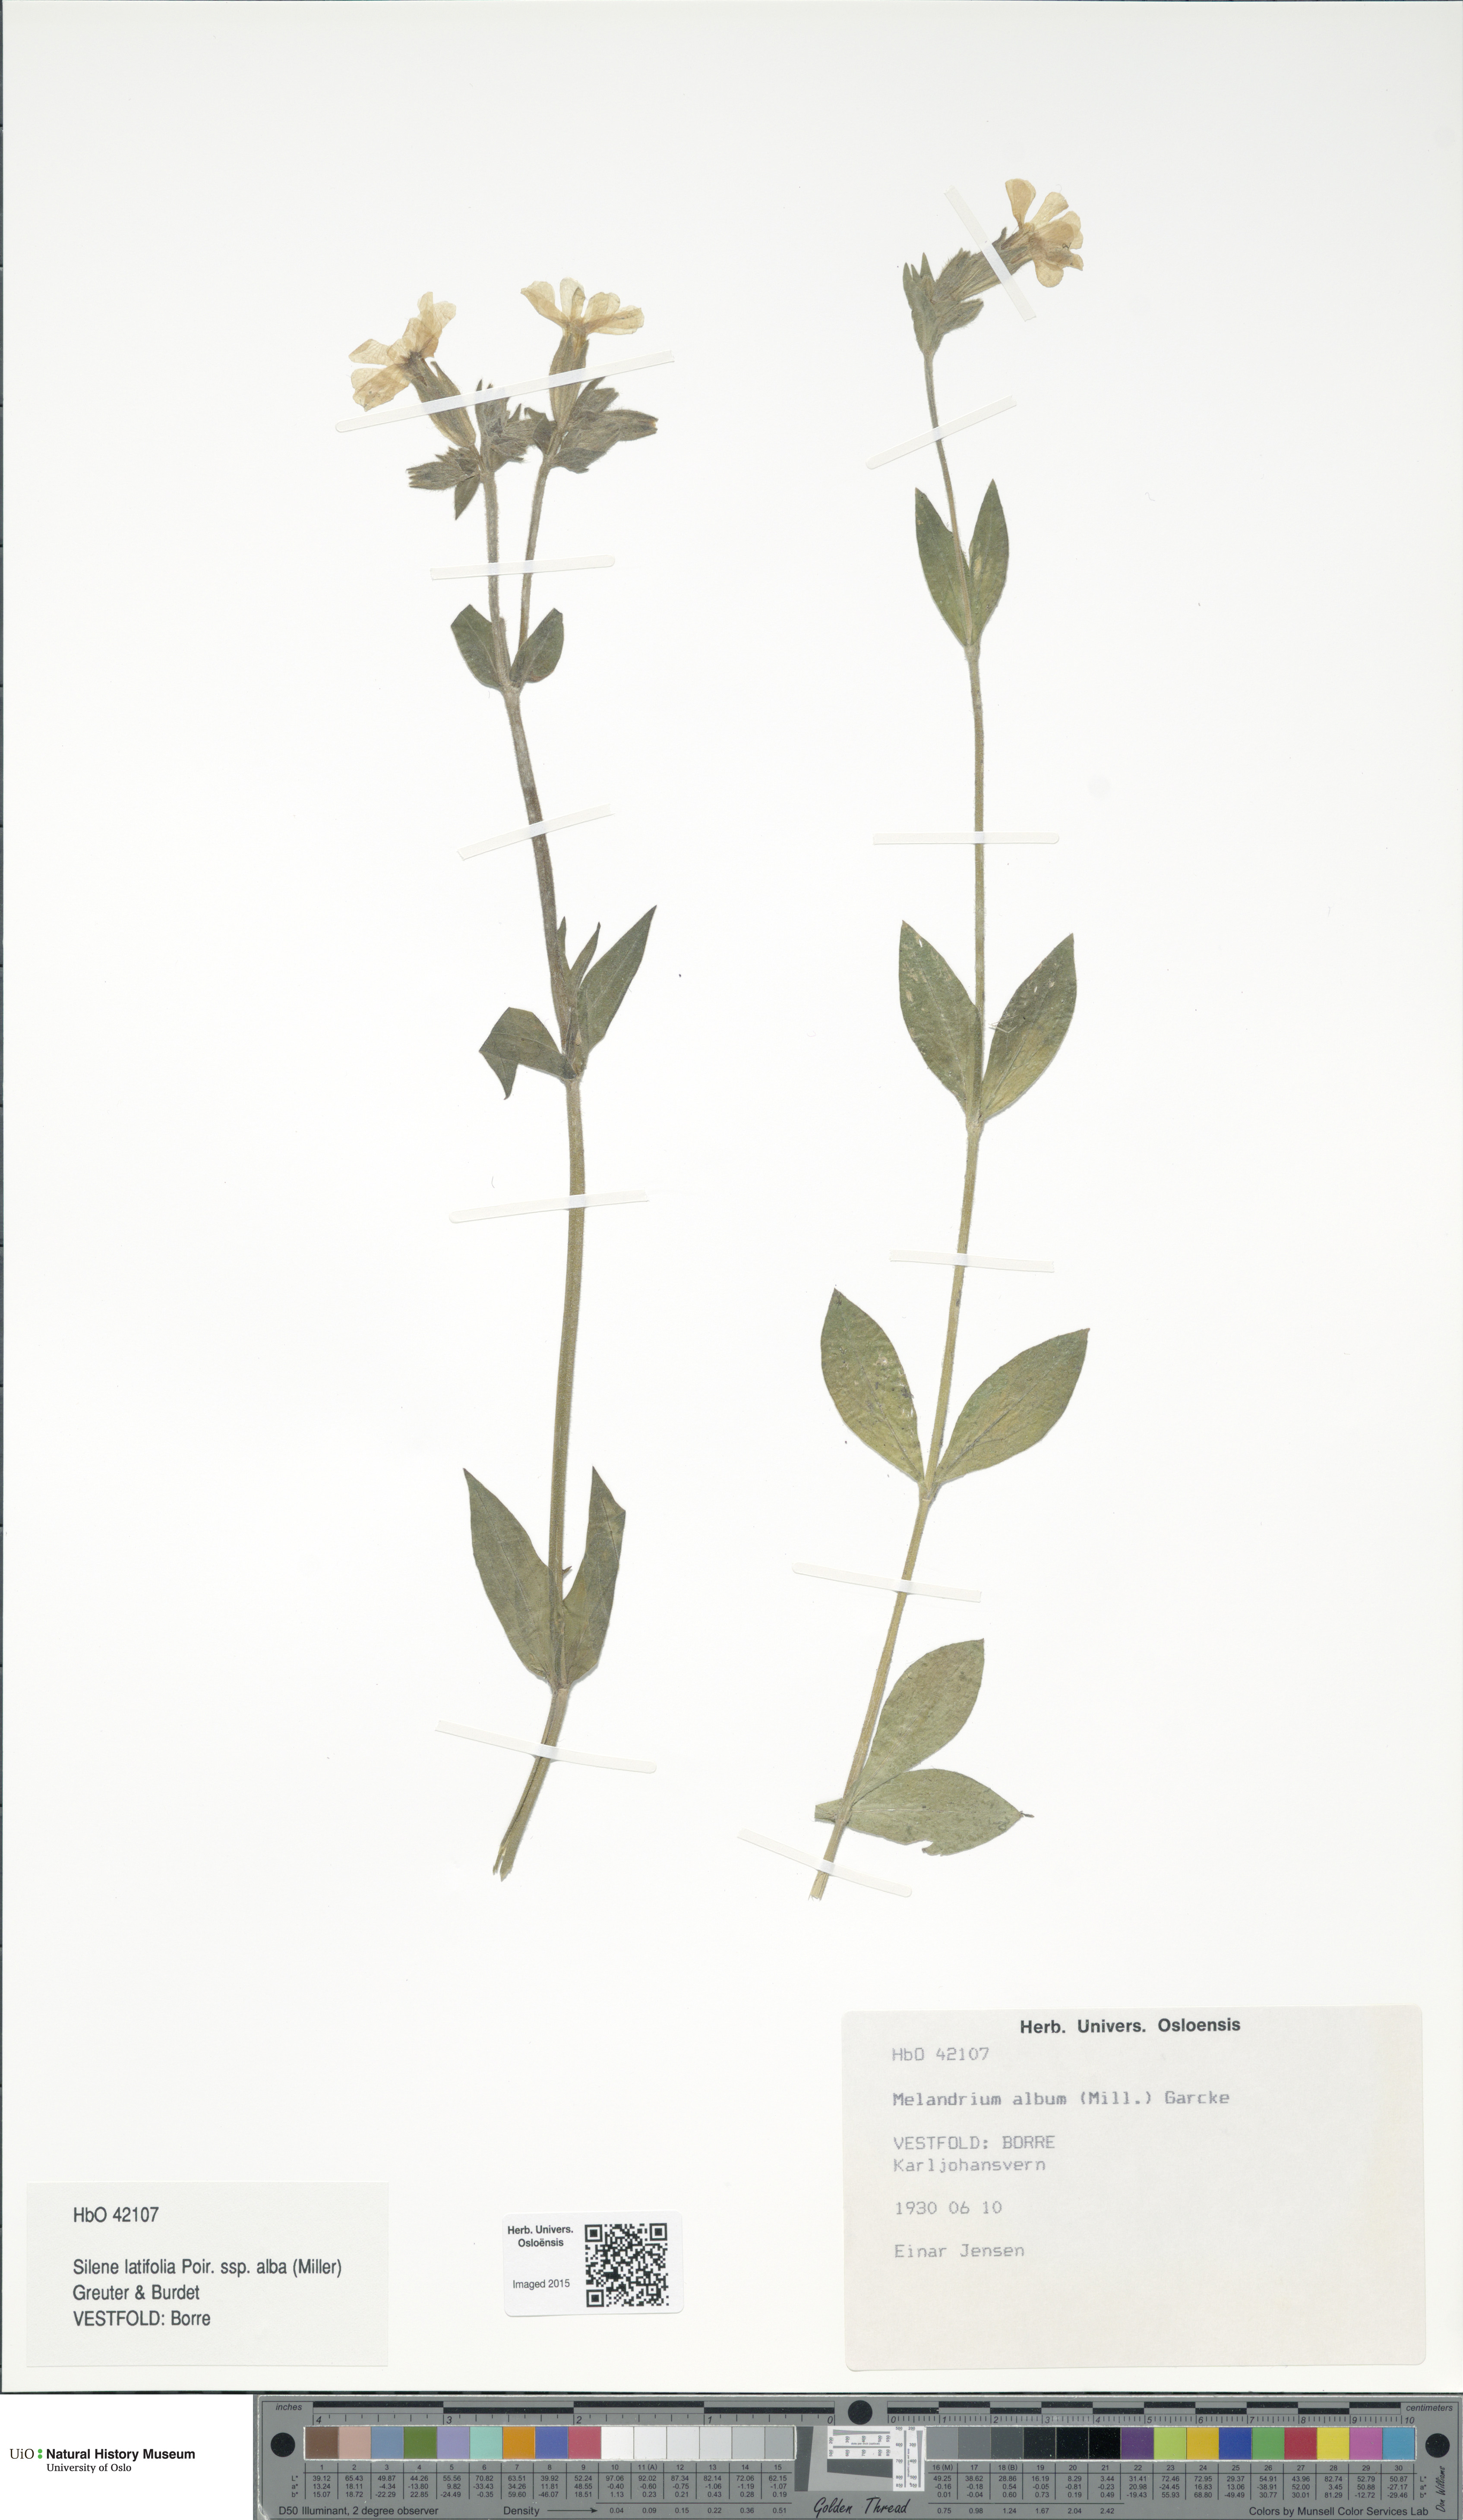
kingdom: Plantae
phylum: Tracheophyta
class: Magnoliopsida
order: Caryophyllales
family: Caryophyllaceae
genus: Silene
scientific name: Silene latifolia
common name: White campion
